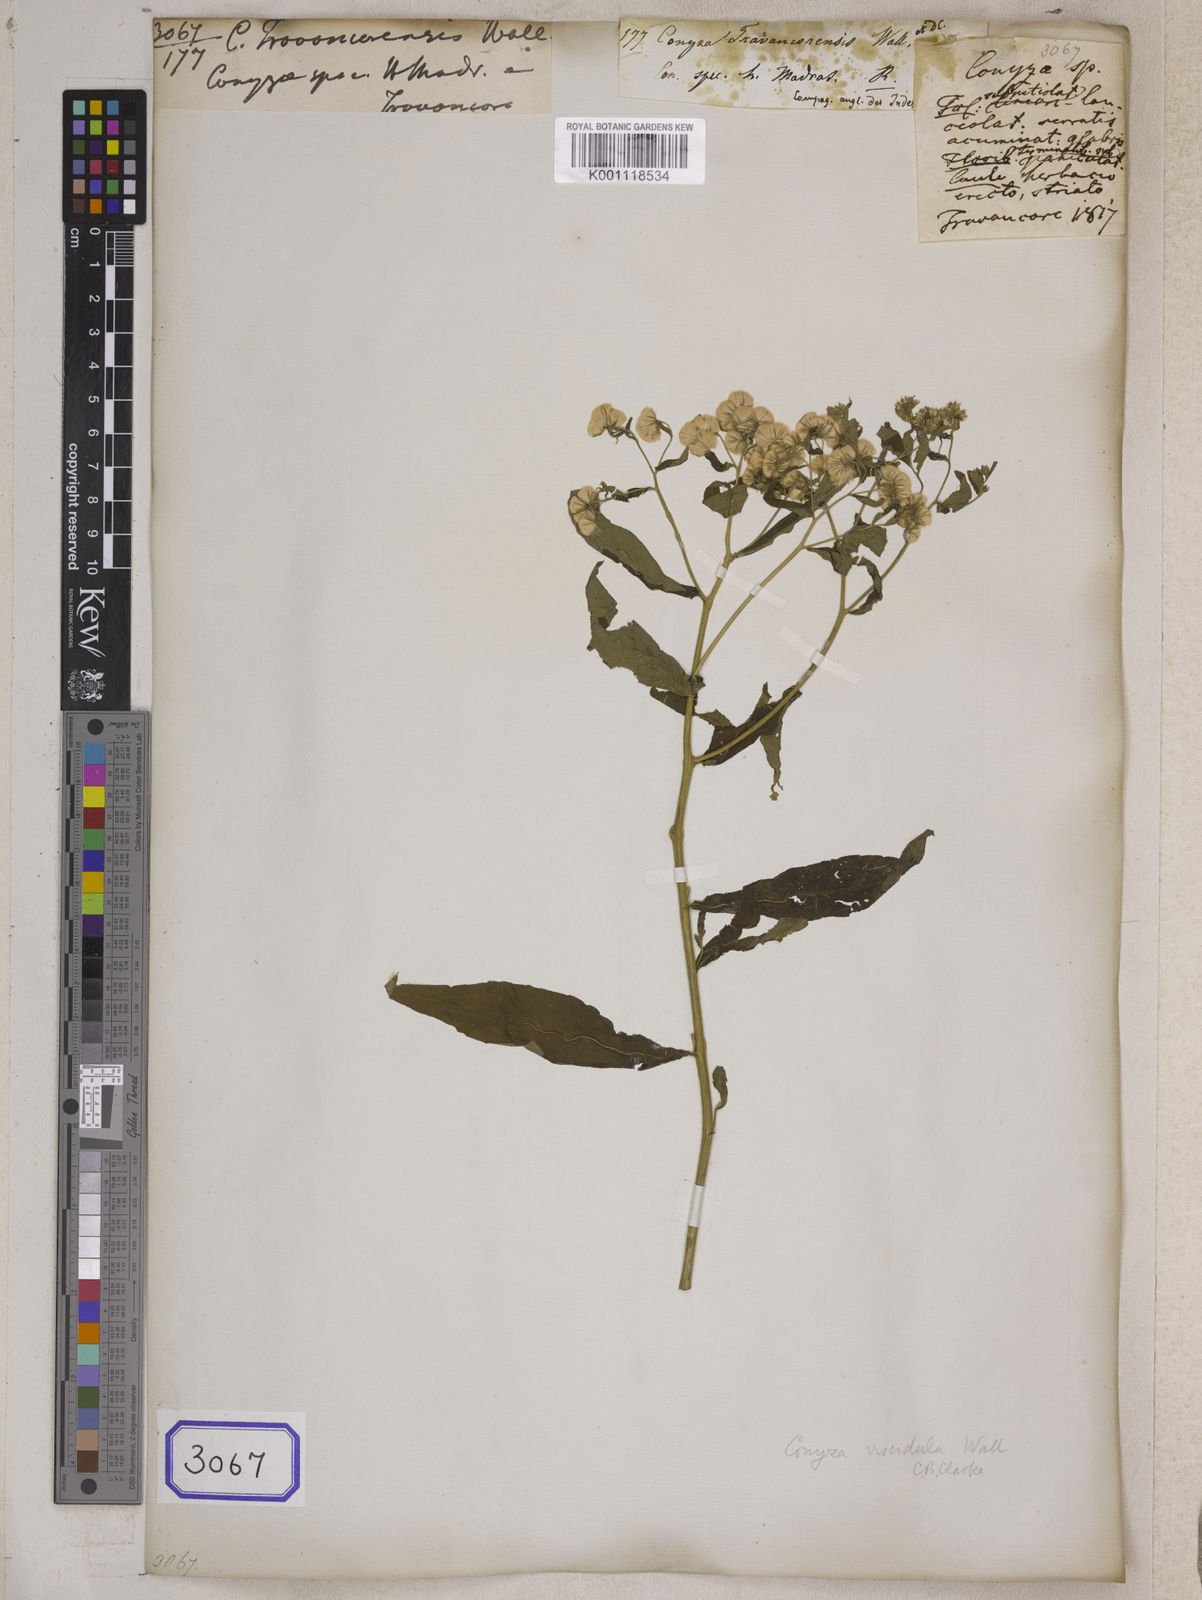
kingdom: Plantae
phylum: Tracheophyta
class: Magnoliopsida
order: Asterales
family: Asteraceae
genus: Eschenbachia
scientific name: Eschenbachia leucantha
